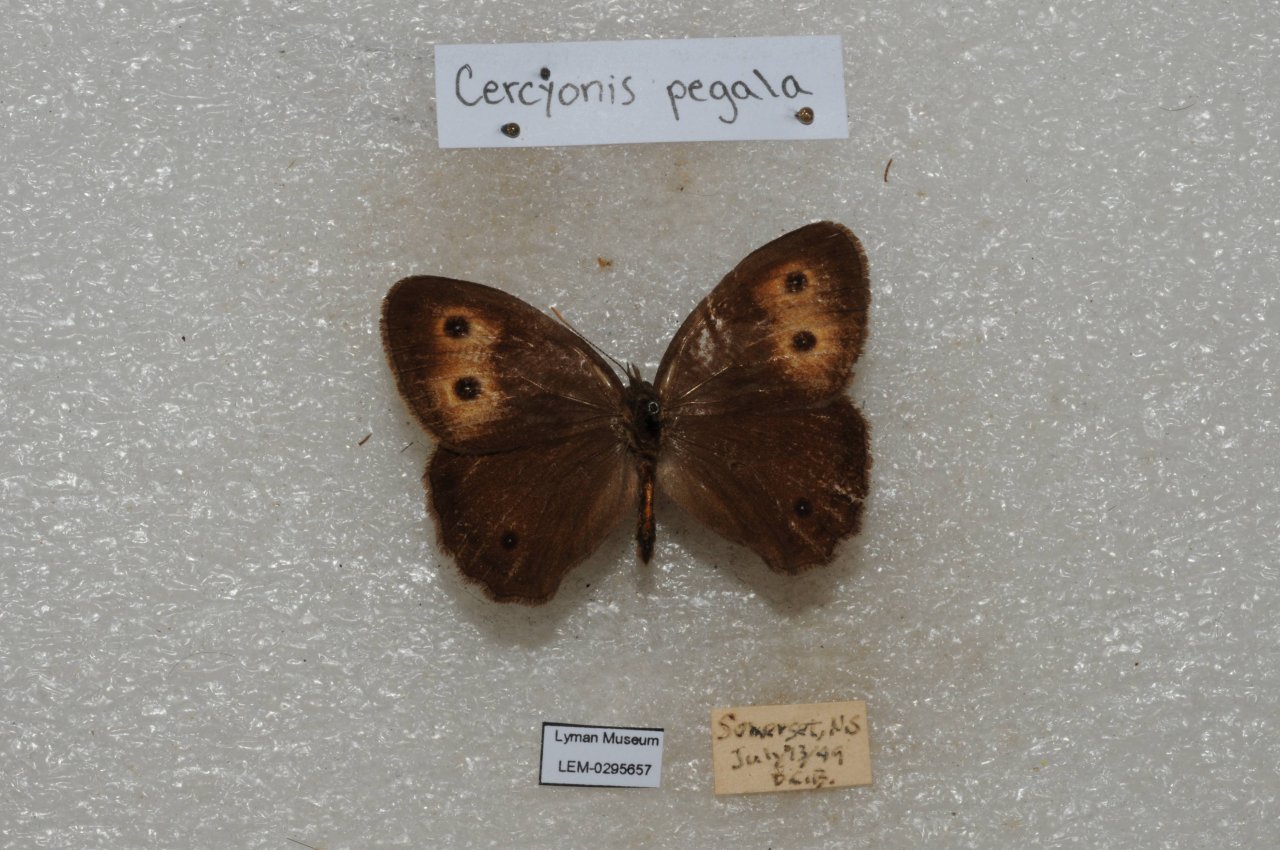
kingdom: Animalia
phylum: Arthropoda
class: Insecta
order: Lepidoptera
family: Nymphalidae
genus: Cercyonis
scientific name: Cercyonis pegala
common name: Common Wood-Nymph
